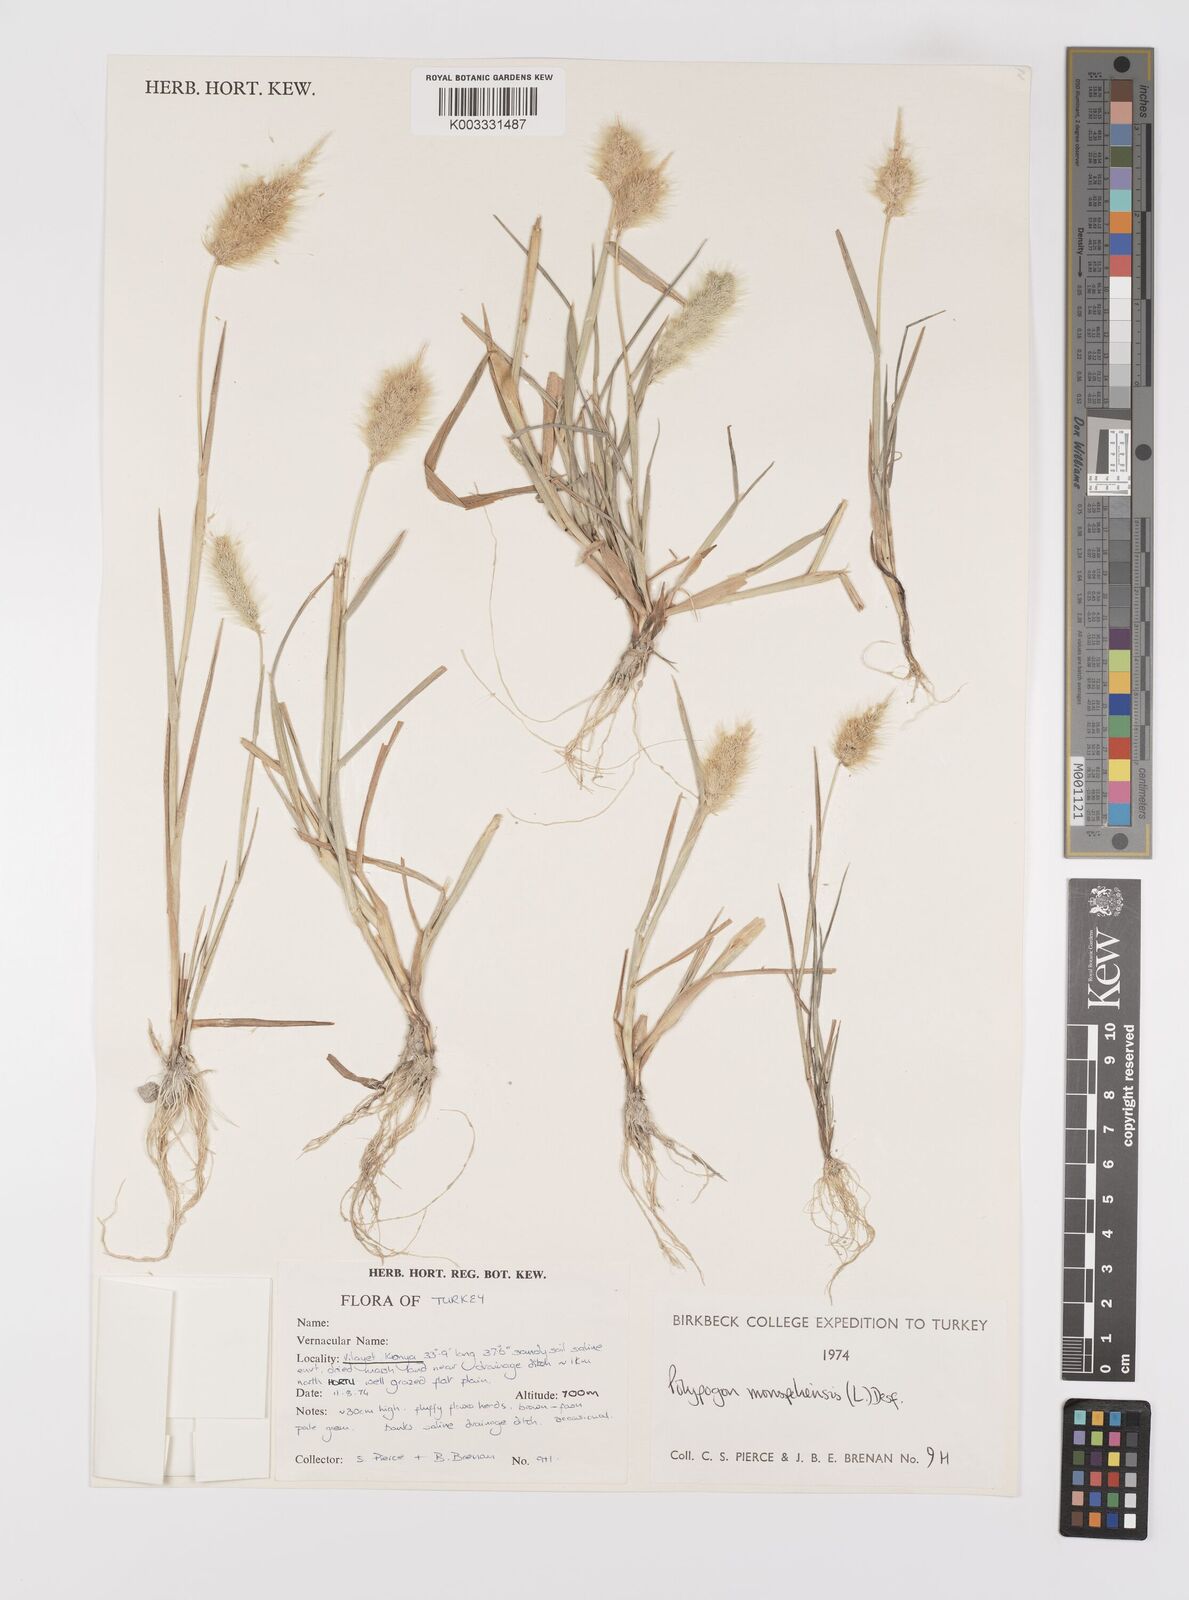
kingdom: Plantae
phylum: Tracheophyta
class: Liliopsida
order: Poales
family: Poaceae
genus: Polypogon
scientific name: Polypogon monspeliensis
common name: Annual rabbitsfoot grass
